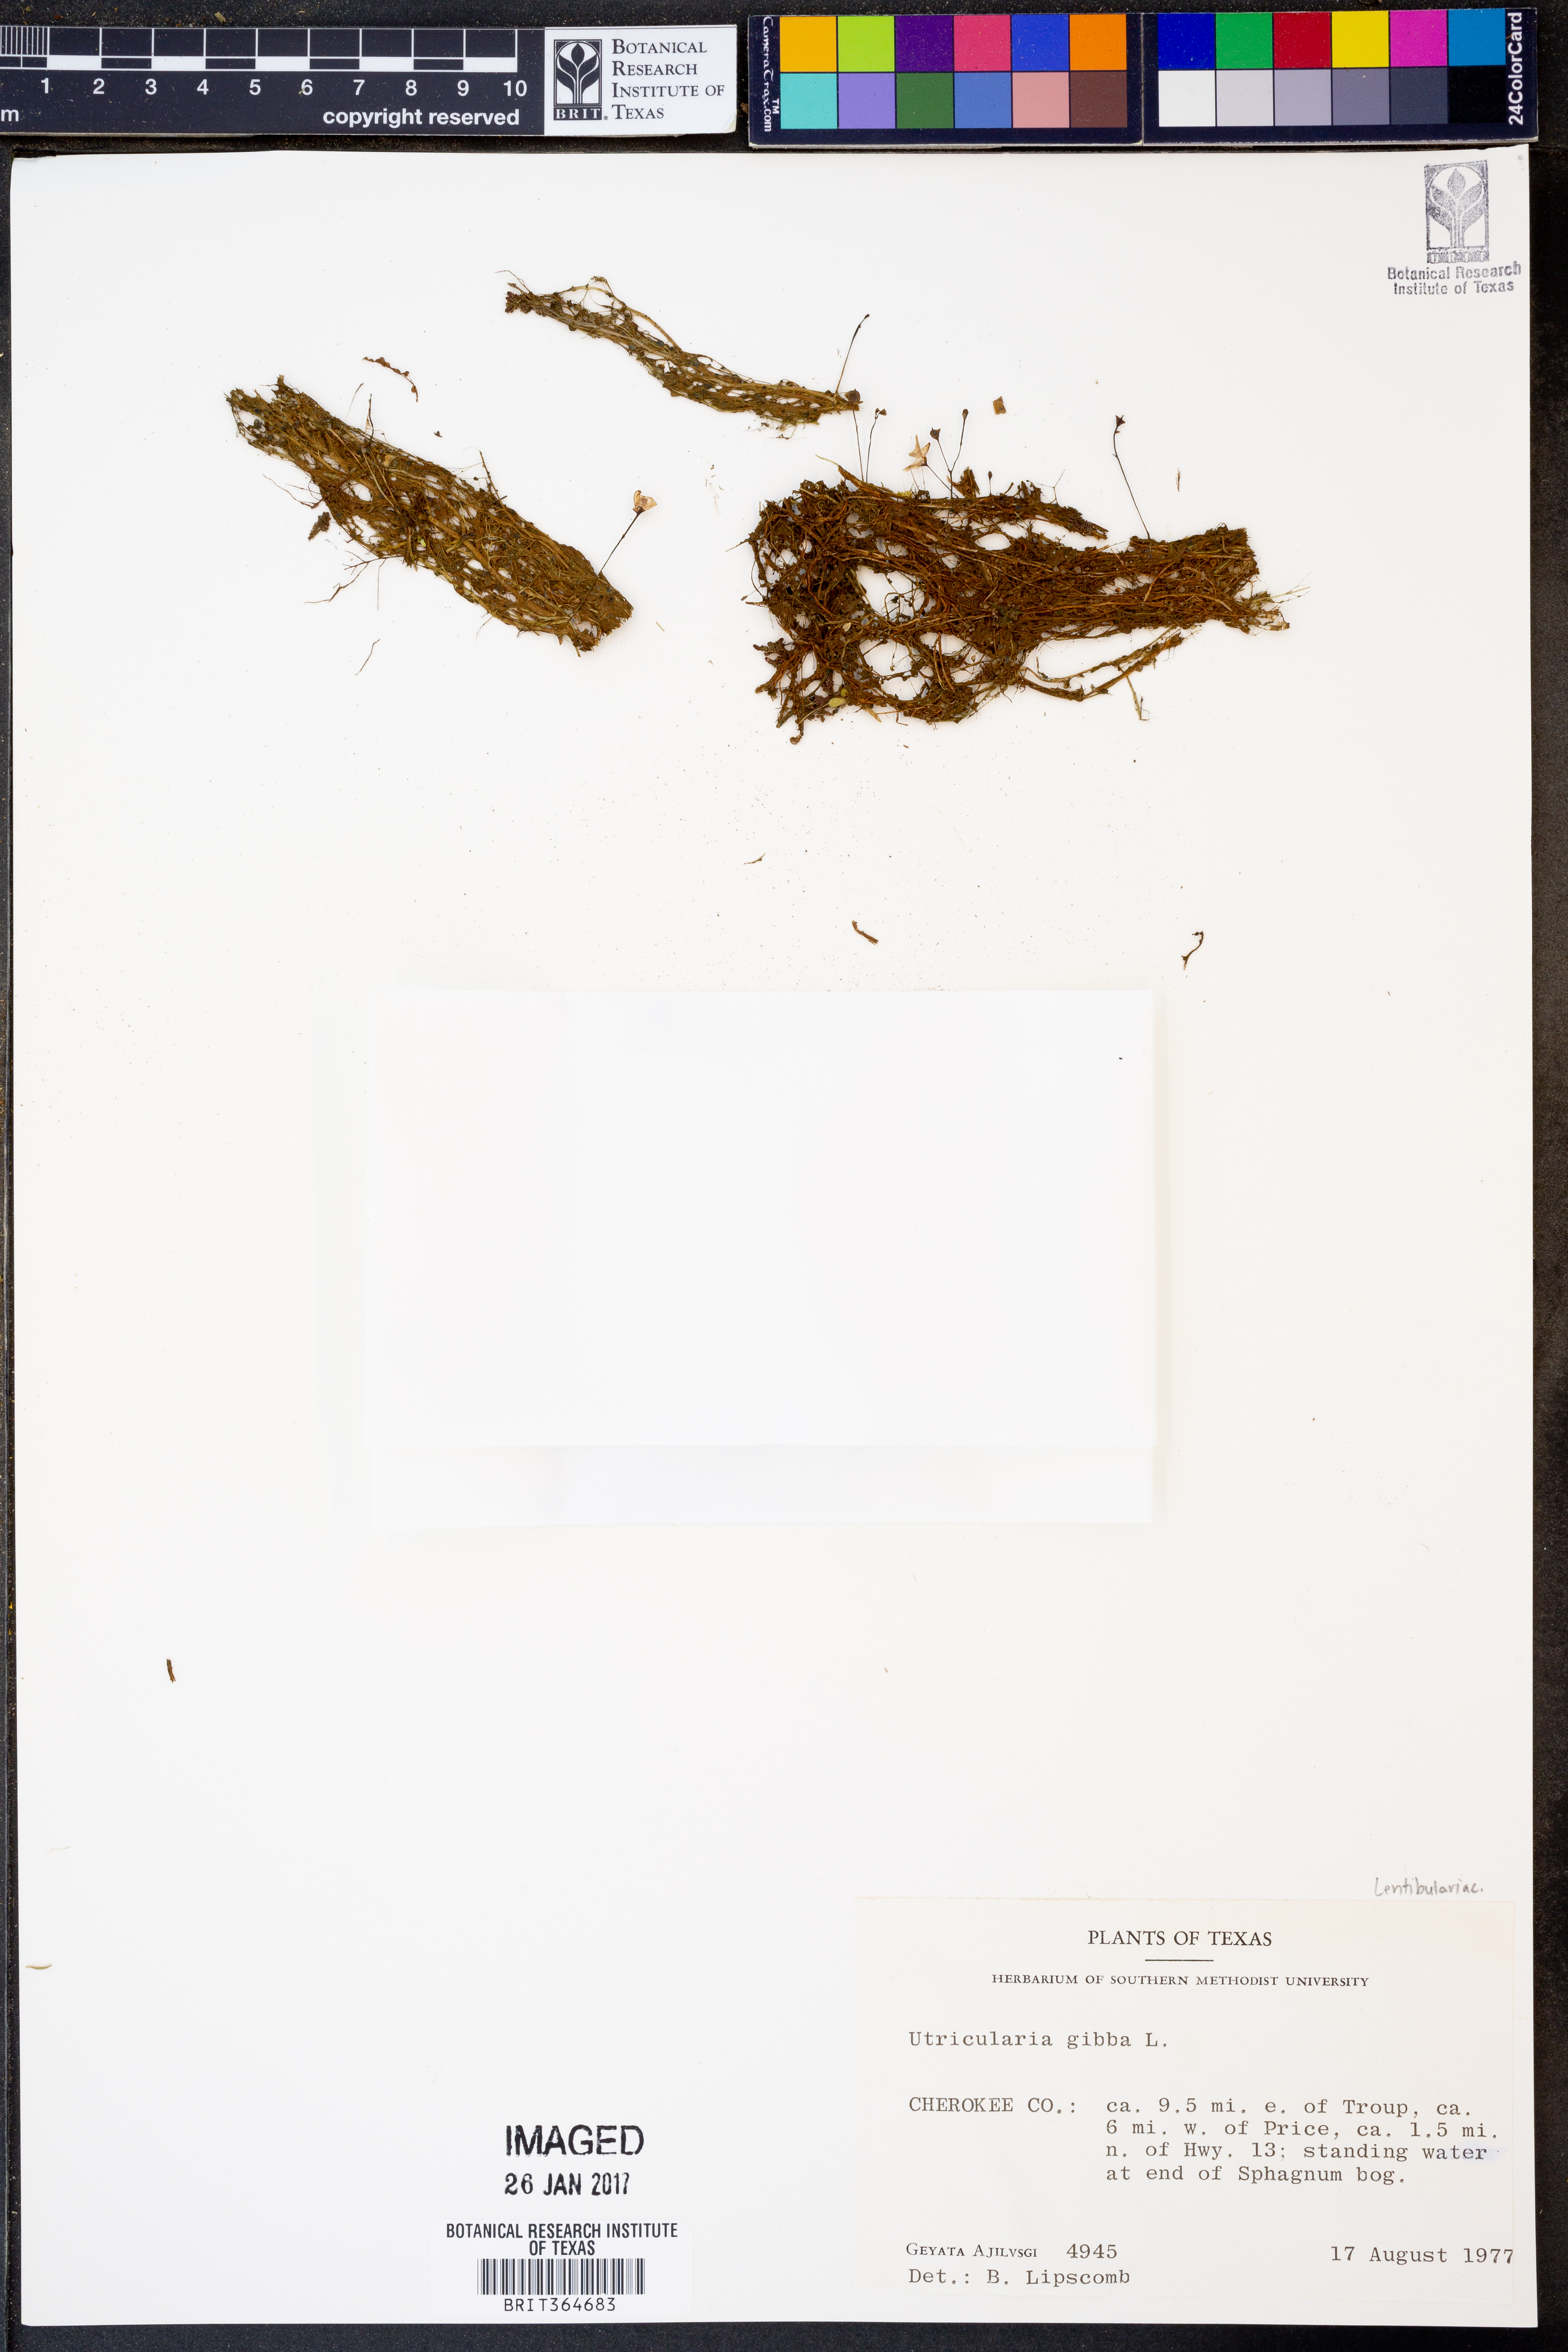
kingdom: Plantae
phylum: Tracheophyta
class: Magnoliopsida
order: Lamiales
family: Lentibulariaceae
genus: Utricularia
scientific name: Utricularia gibba
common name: Humped bladderwort
